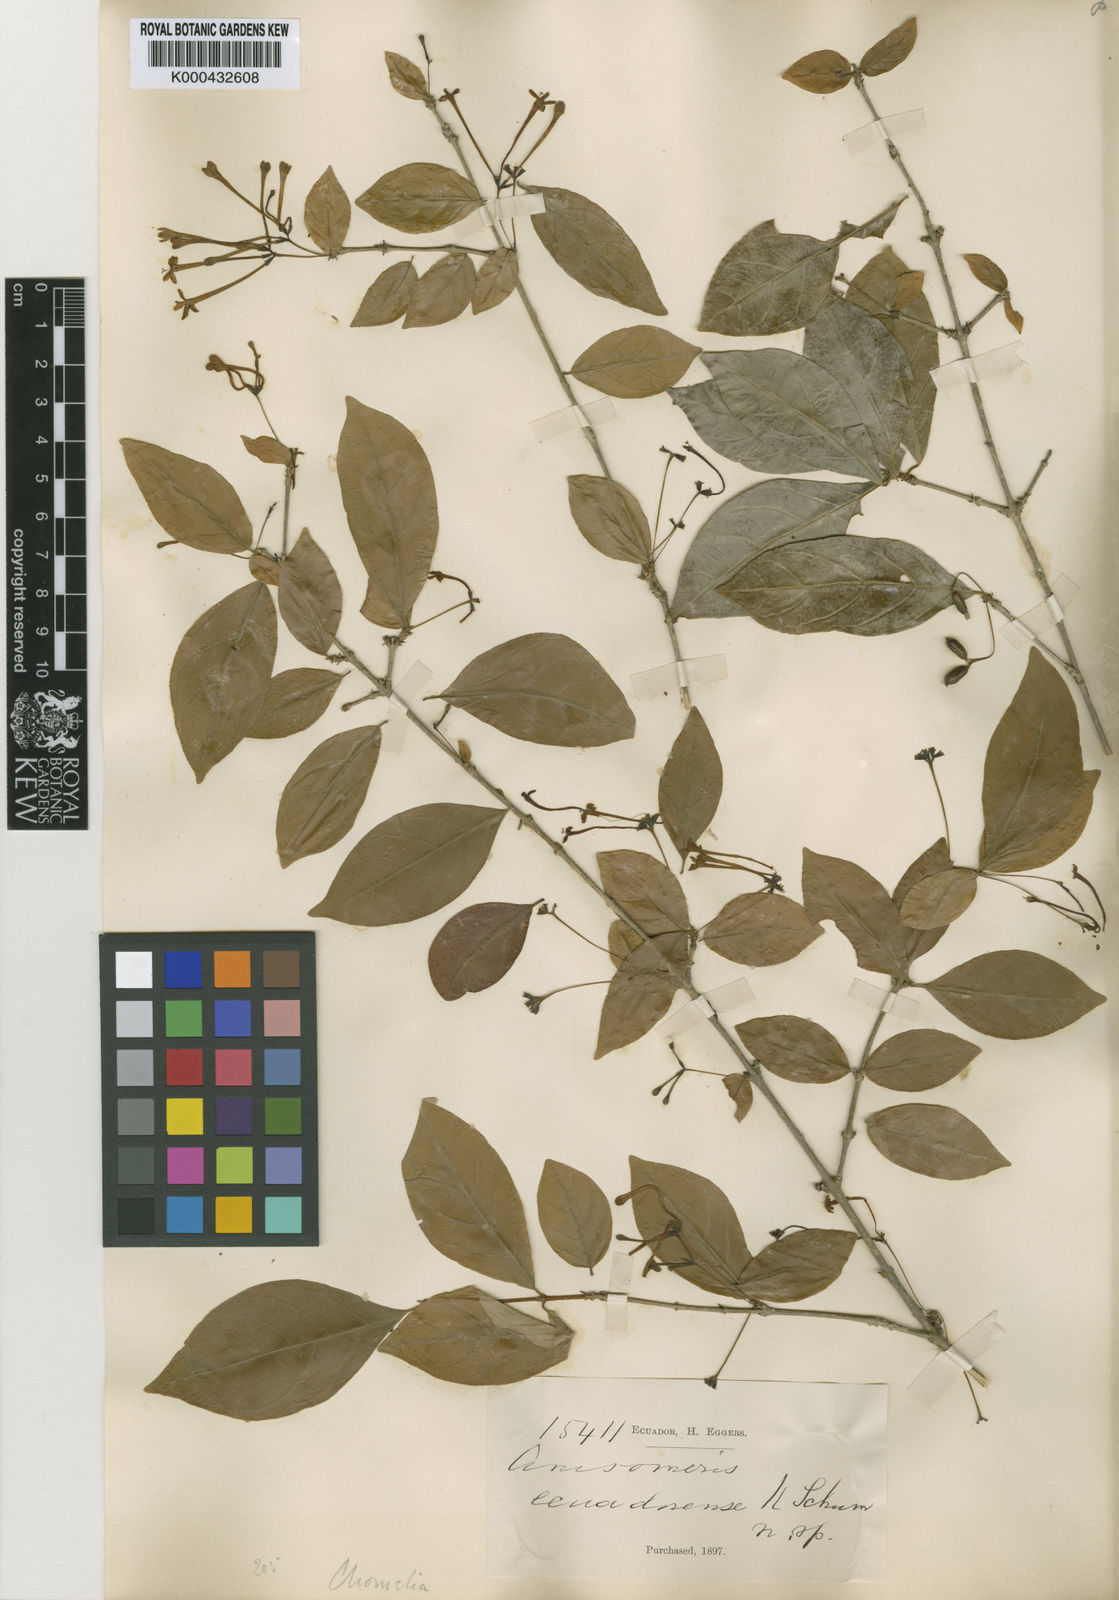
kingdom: Plantae
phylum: Tracheophyta
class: Magnoliopsida
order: Gentianales
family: Rubiaceae
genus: Chomelia
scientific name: Chomelia ecuadorensis
